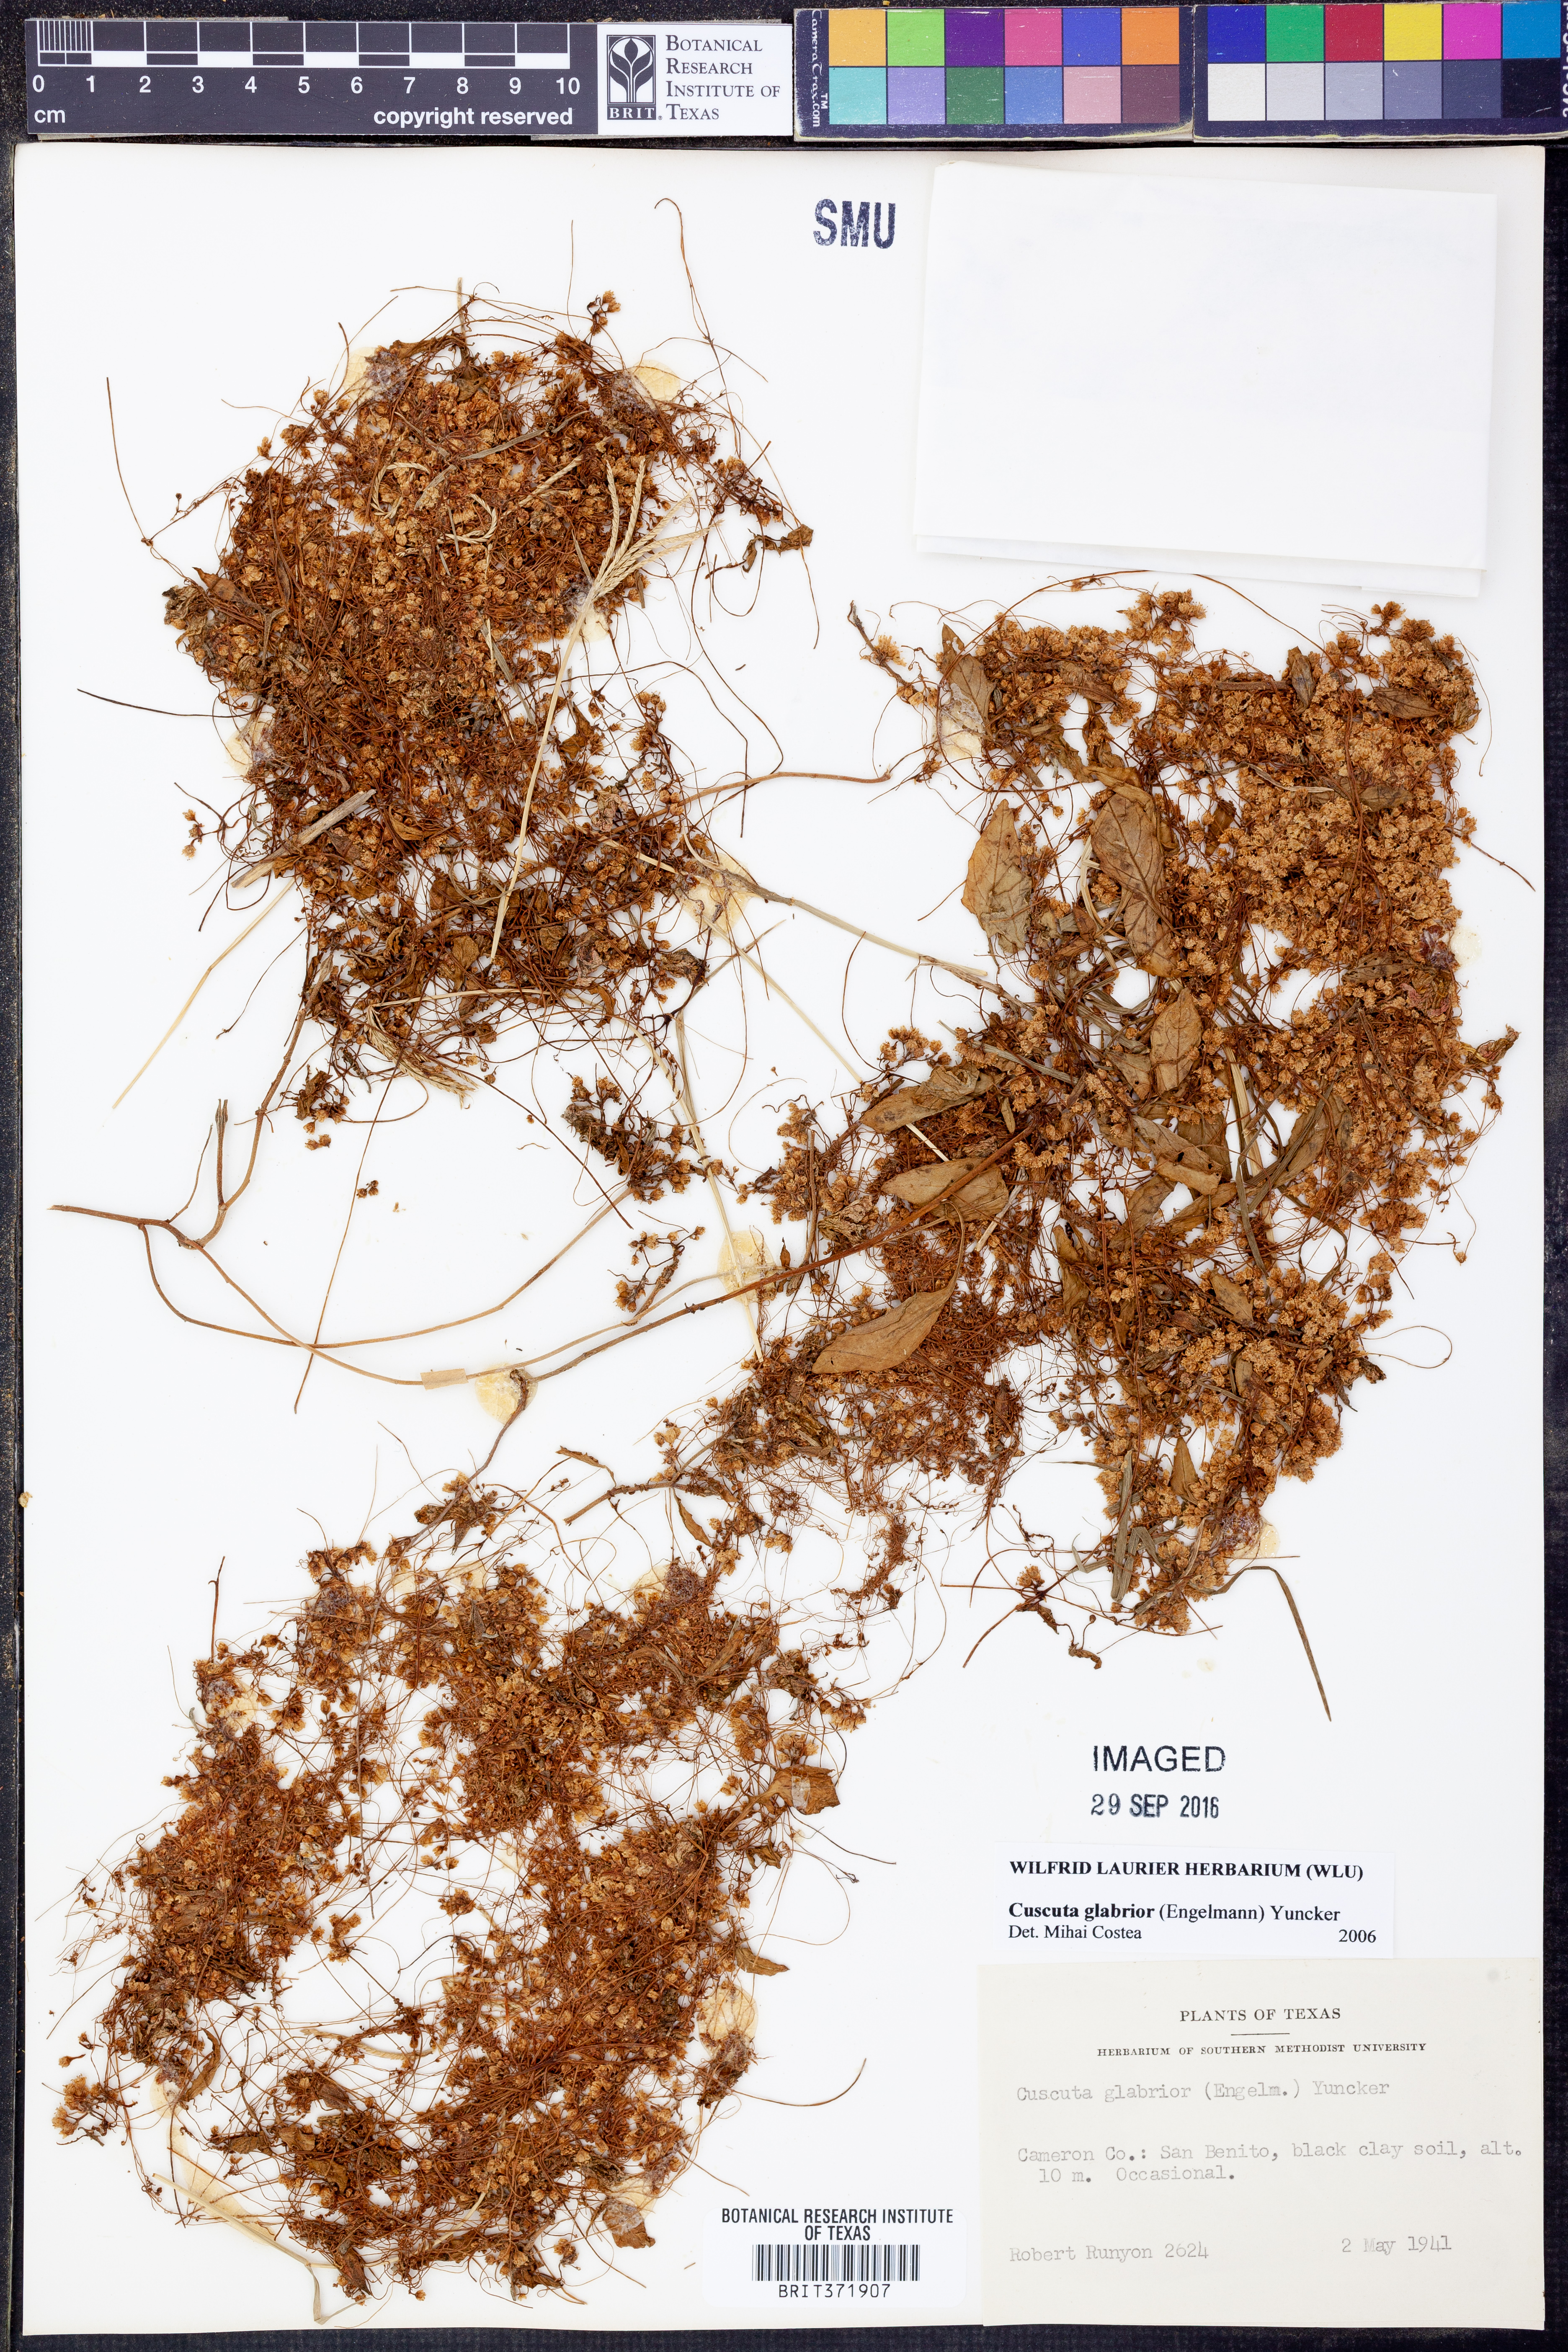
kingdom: Plantae
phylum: Tracheophyta
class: Magnoliopsida
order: Solanales
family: Convolvulaceae
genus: Cuscuta
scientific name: Cuscuta glabrior
